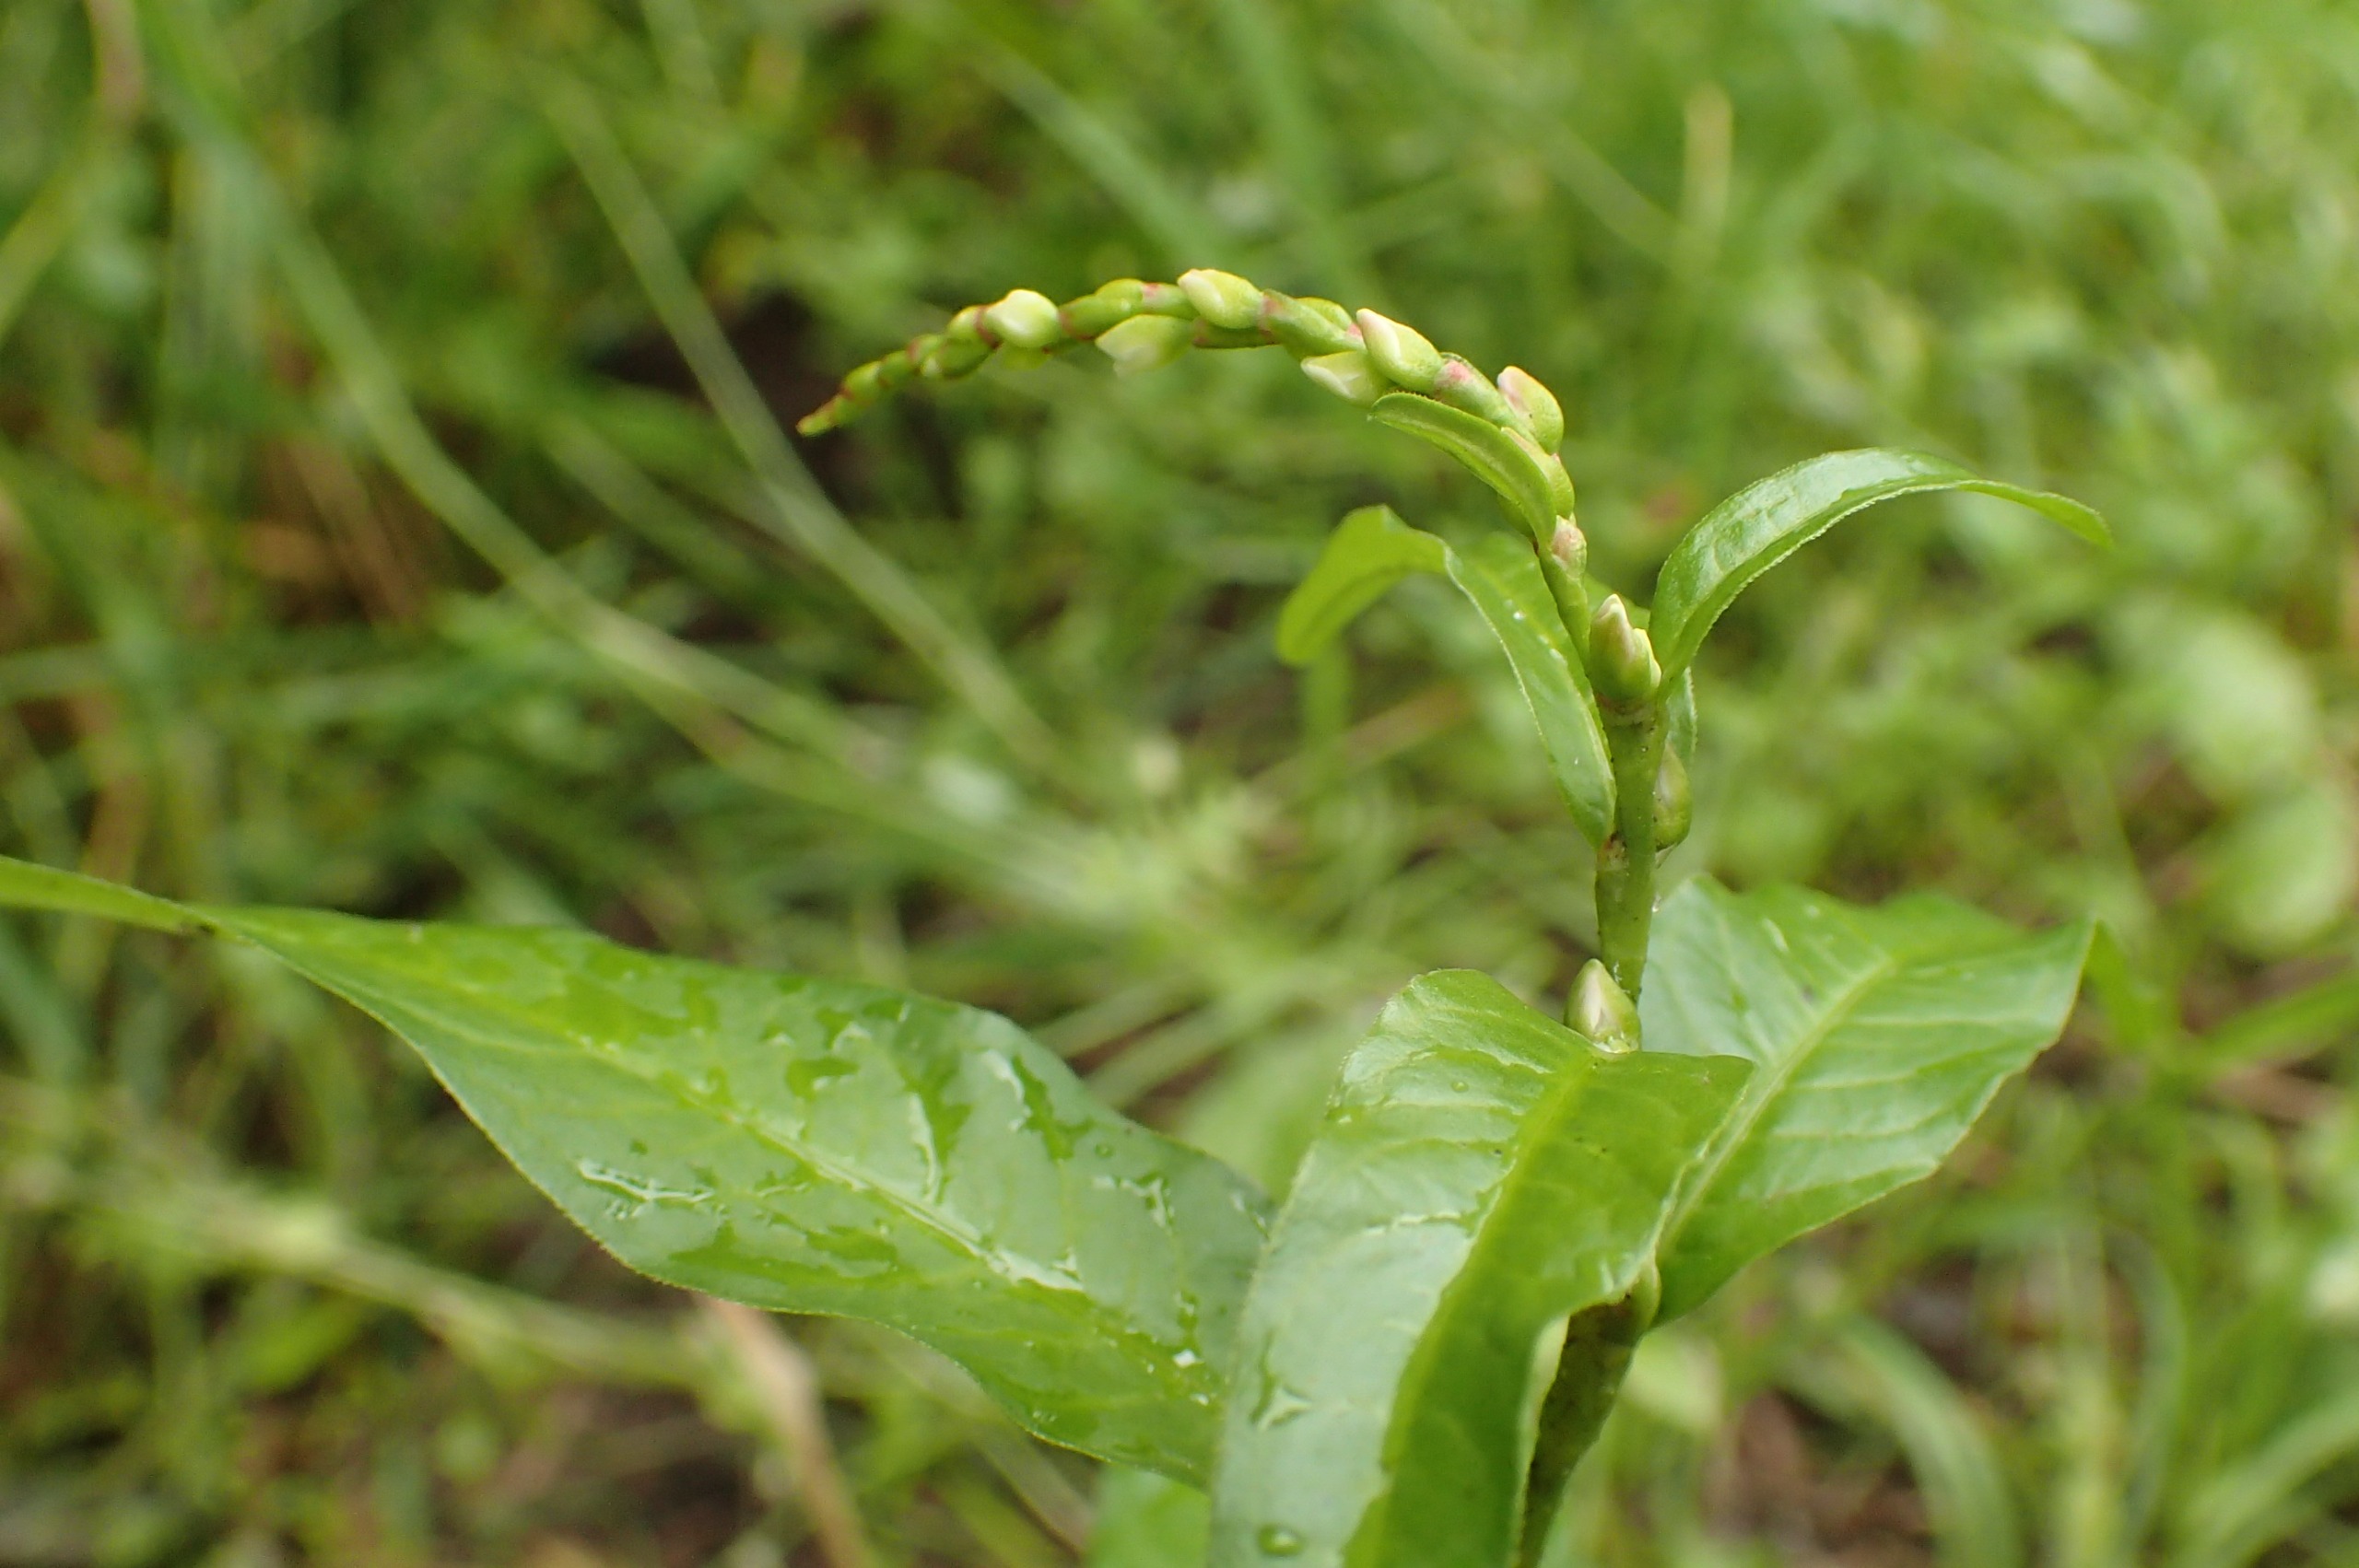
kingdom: Plantae
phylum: Tracheophyta
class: Magnoliopsida
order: Caryophyllales
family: Polygonaceae
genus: Persicaria
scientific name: Persicaria hydropiper
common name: Bidende pileurt
